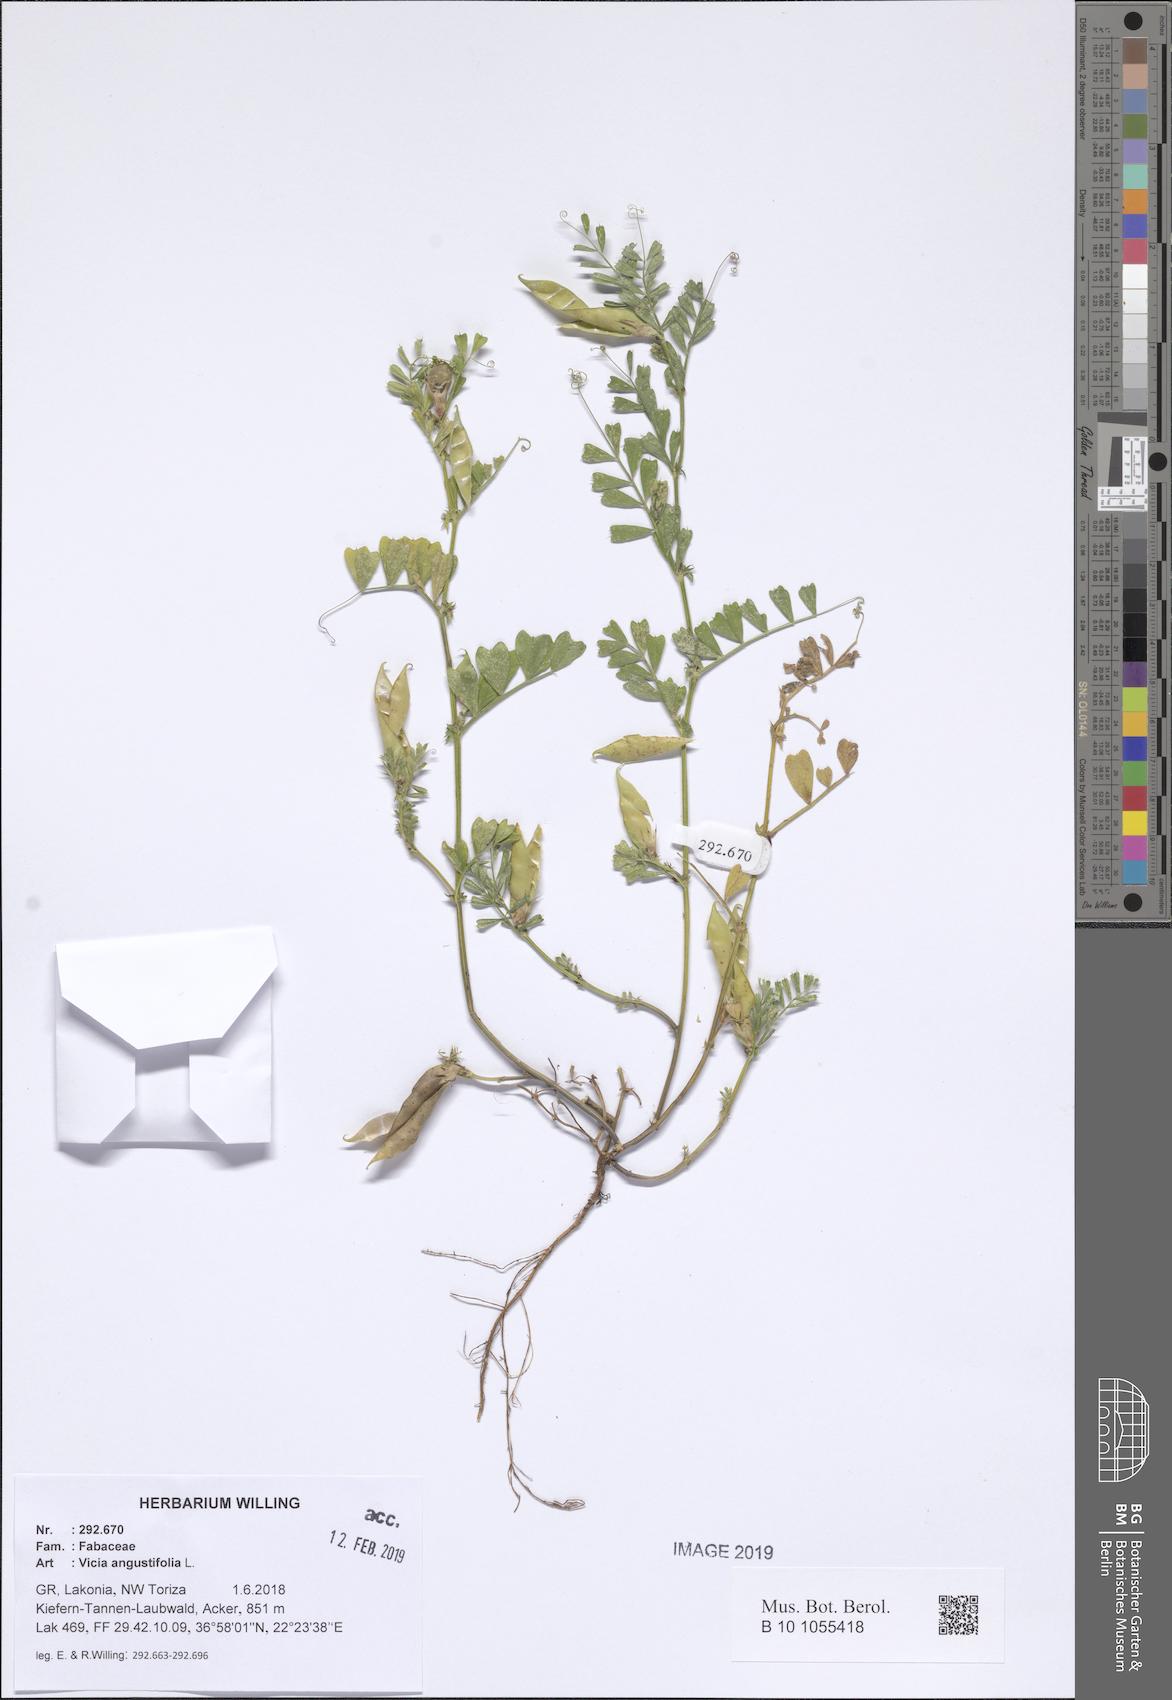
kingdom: Plantae
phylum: Tracheophyta
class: Magnoliopsida
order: Fabales
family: Fabaceae
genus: Vicia
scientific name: Vicia sativa
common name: Garden vetch
